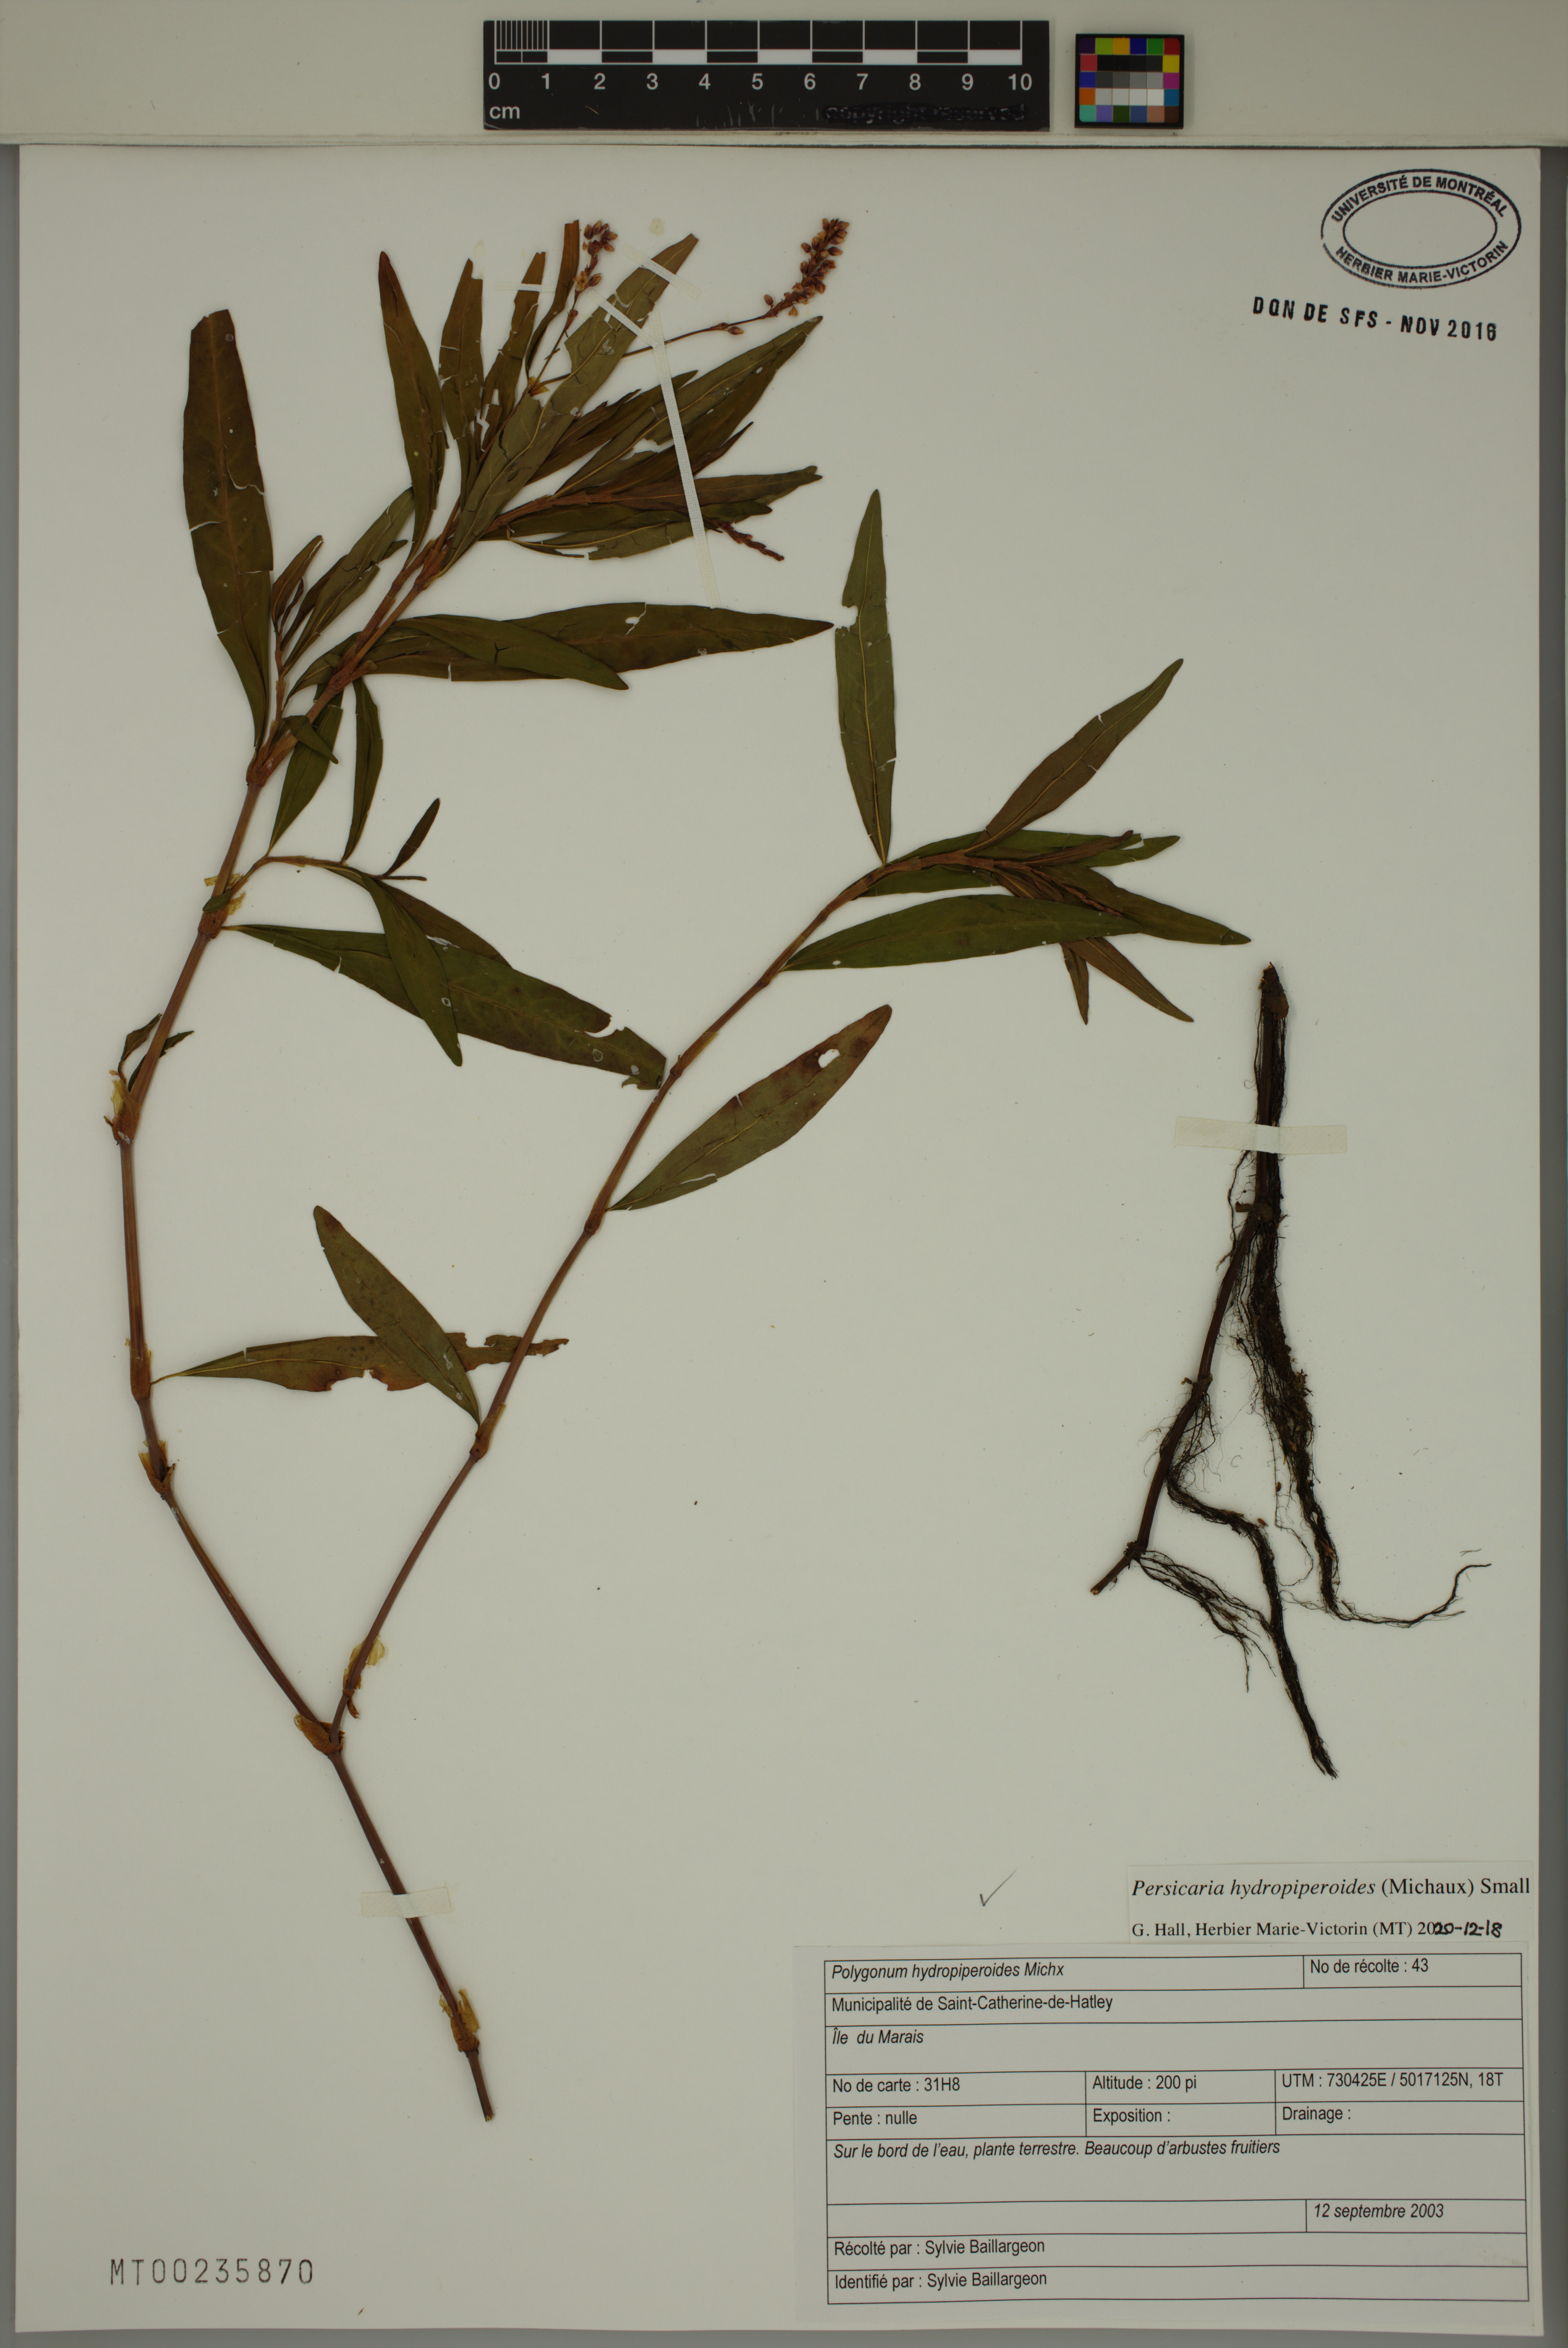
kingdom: Plantae
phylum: Tracheophyta
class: Magnoliopsida
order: Caryophyllales
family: Polygonaceae
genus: Persicaria
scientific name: Persicaria hydropiperoides
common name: Swamp smartweed
